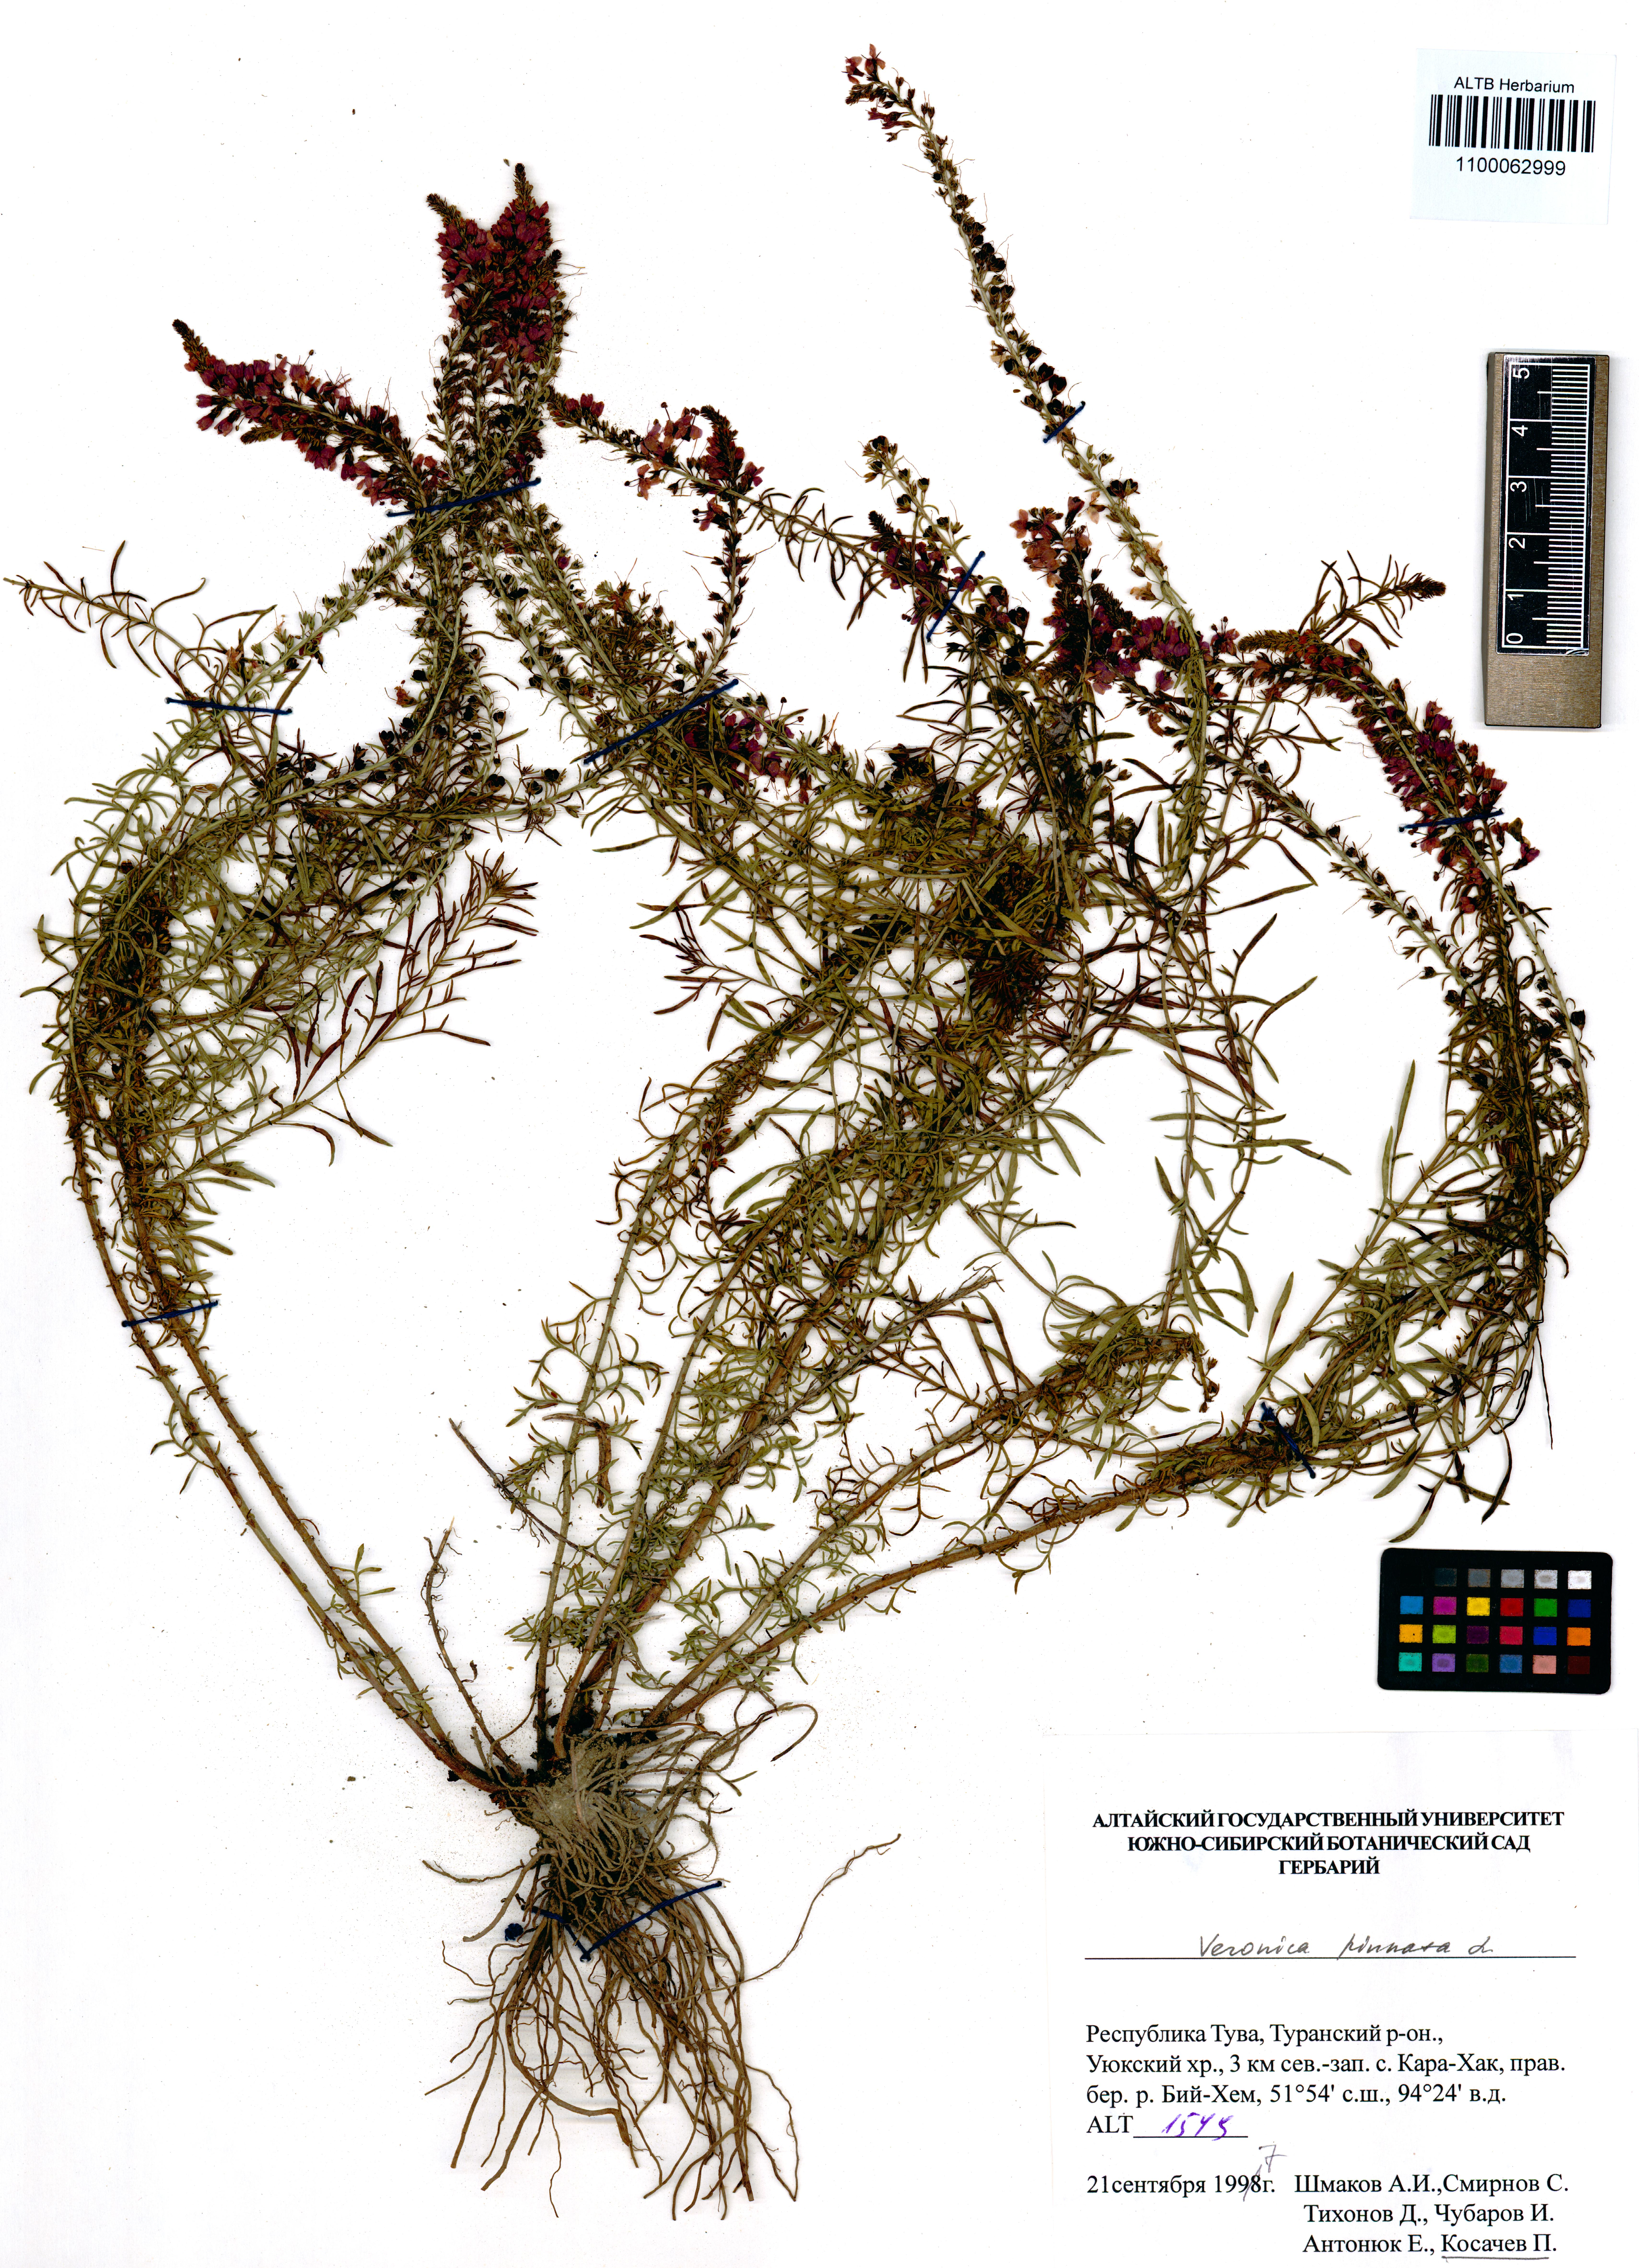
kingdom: Plantae
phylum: Tracheophyta
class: Magnoliopsida
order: Lamiales
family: Plantaginaceae
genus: Veronica
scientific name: Veronica pinnata
